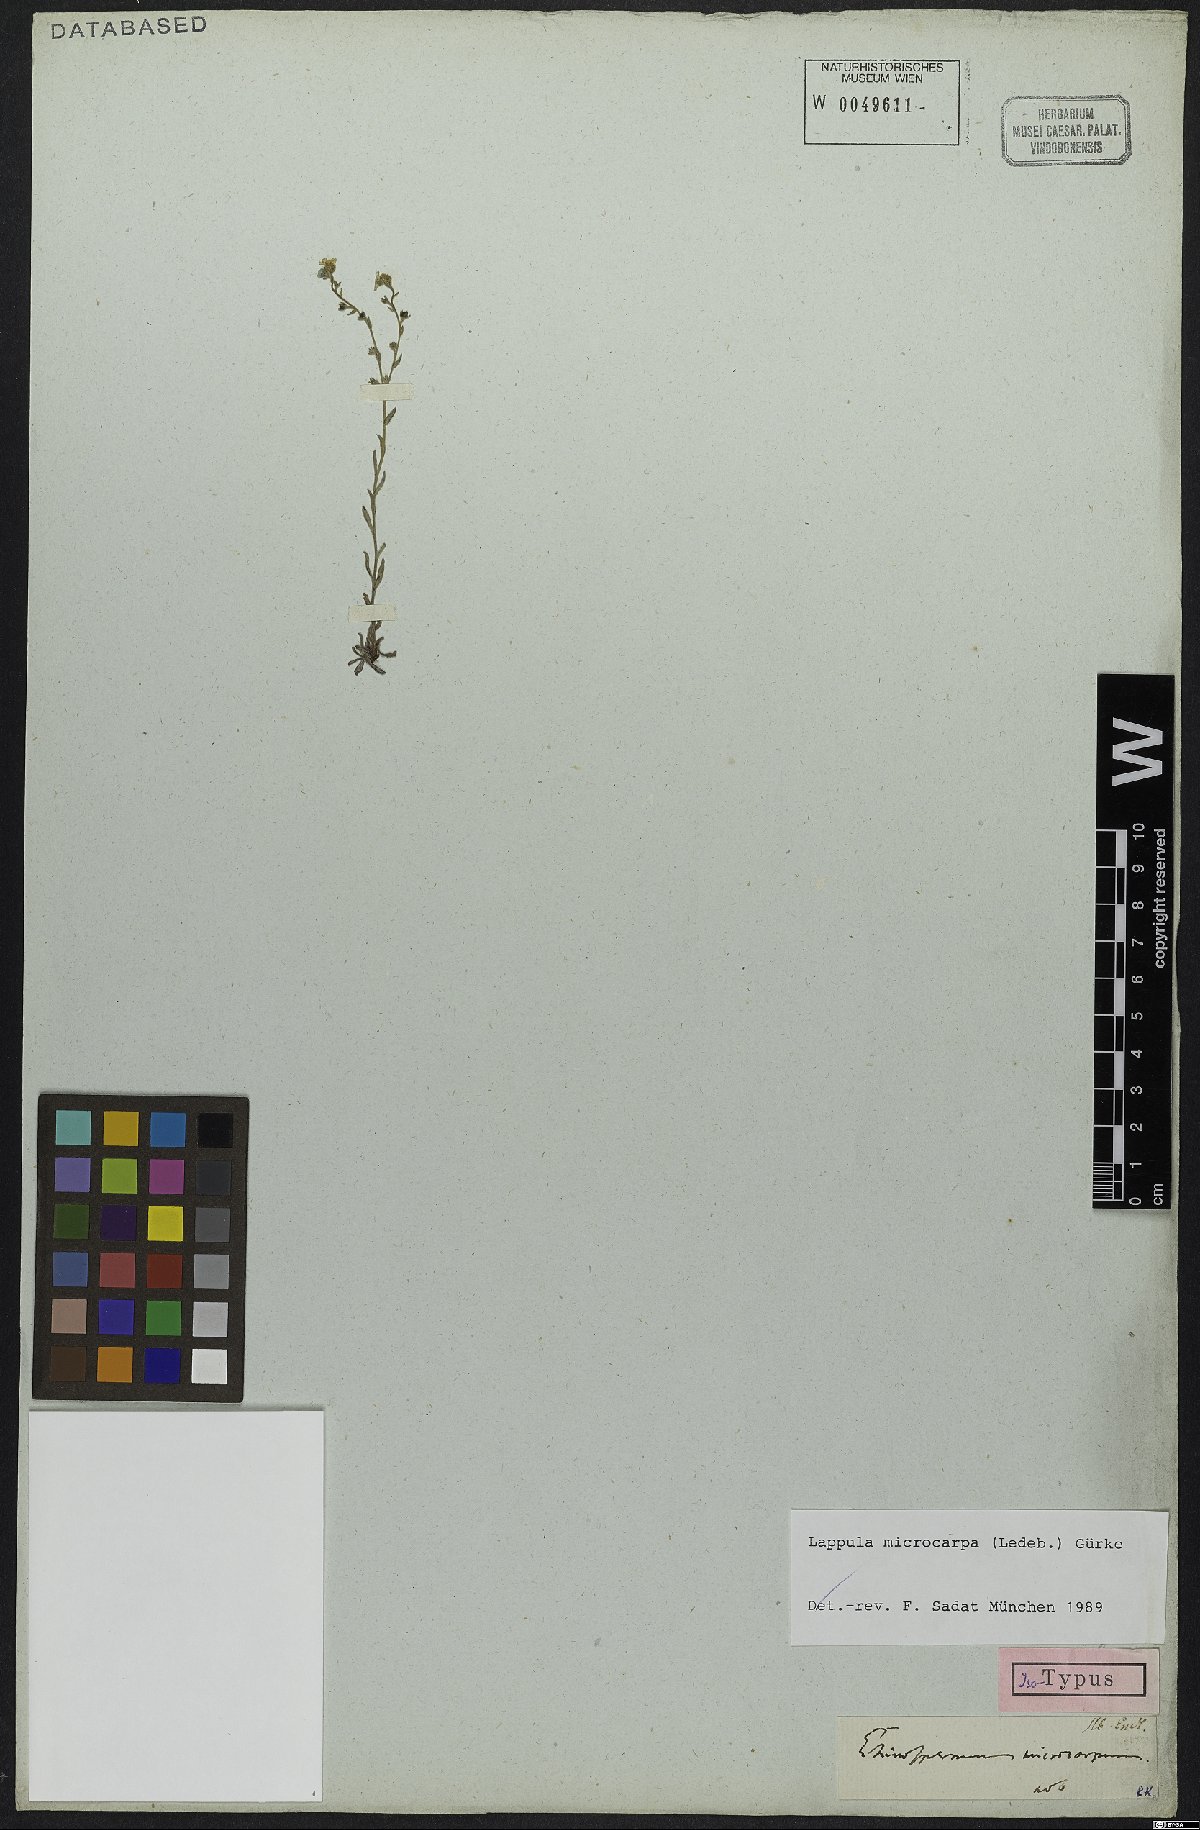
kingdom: Plantae
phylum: Tracheophyta
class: Magnoliopsida
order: Boraginales
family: Boraginaceae
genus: Lappula
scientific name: Lappula microcarpa
